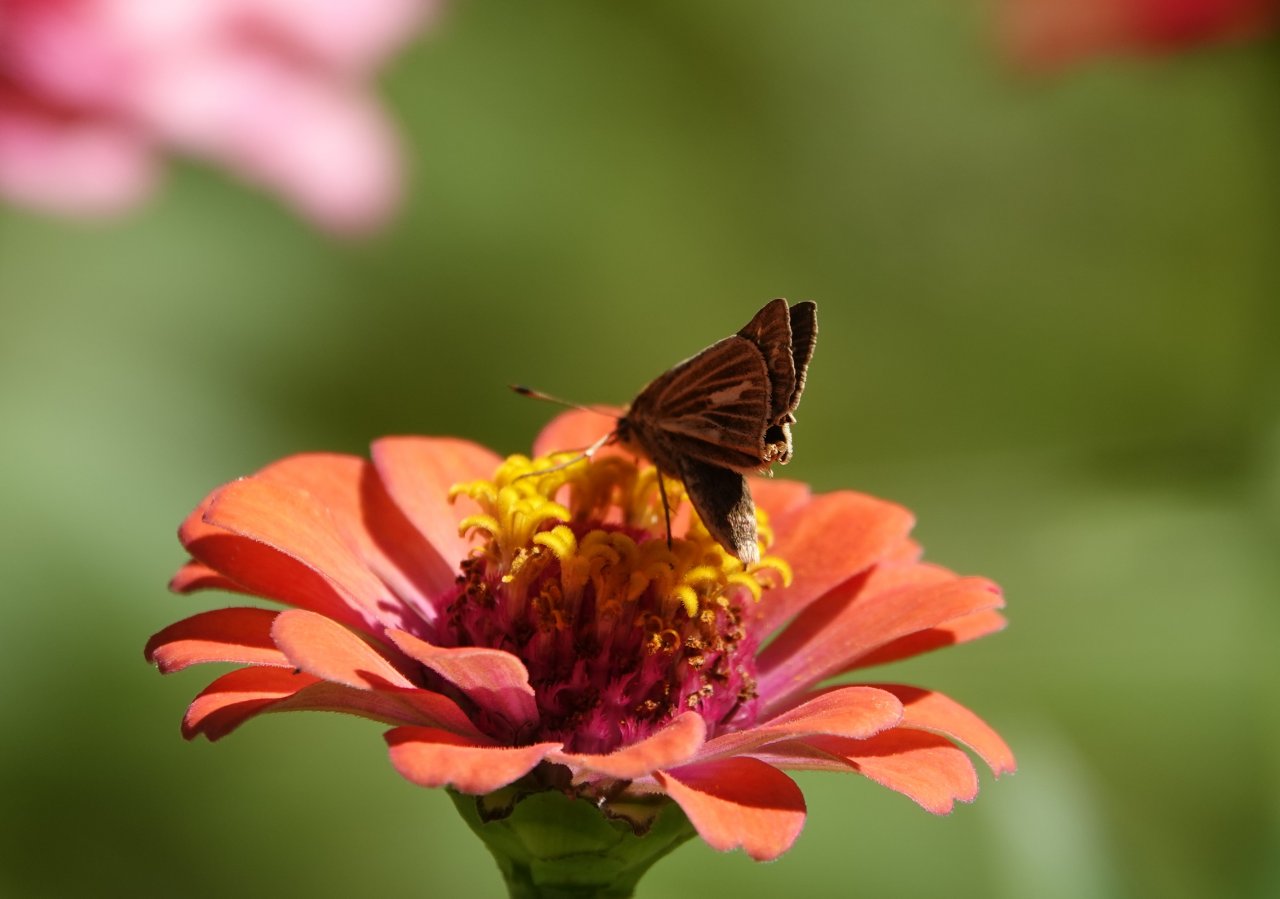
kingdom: Animalia
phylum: Arthropoda
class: Insecta
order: Lepidoptera
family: Hesperiidae
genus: Panoquina
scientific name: Panoquina panoquin
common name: Salt Marsh Skipper
